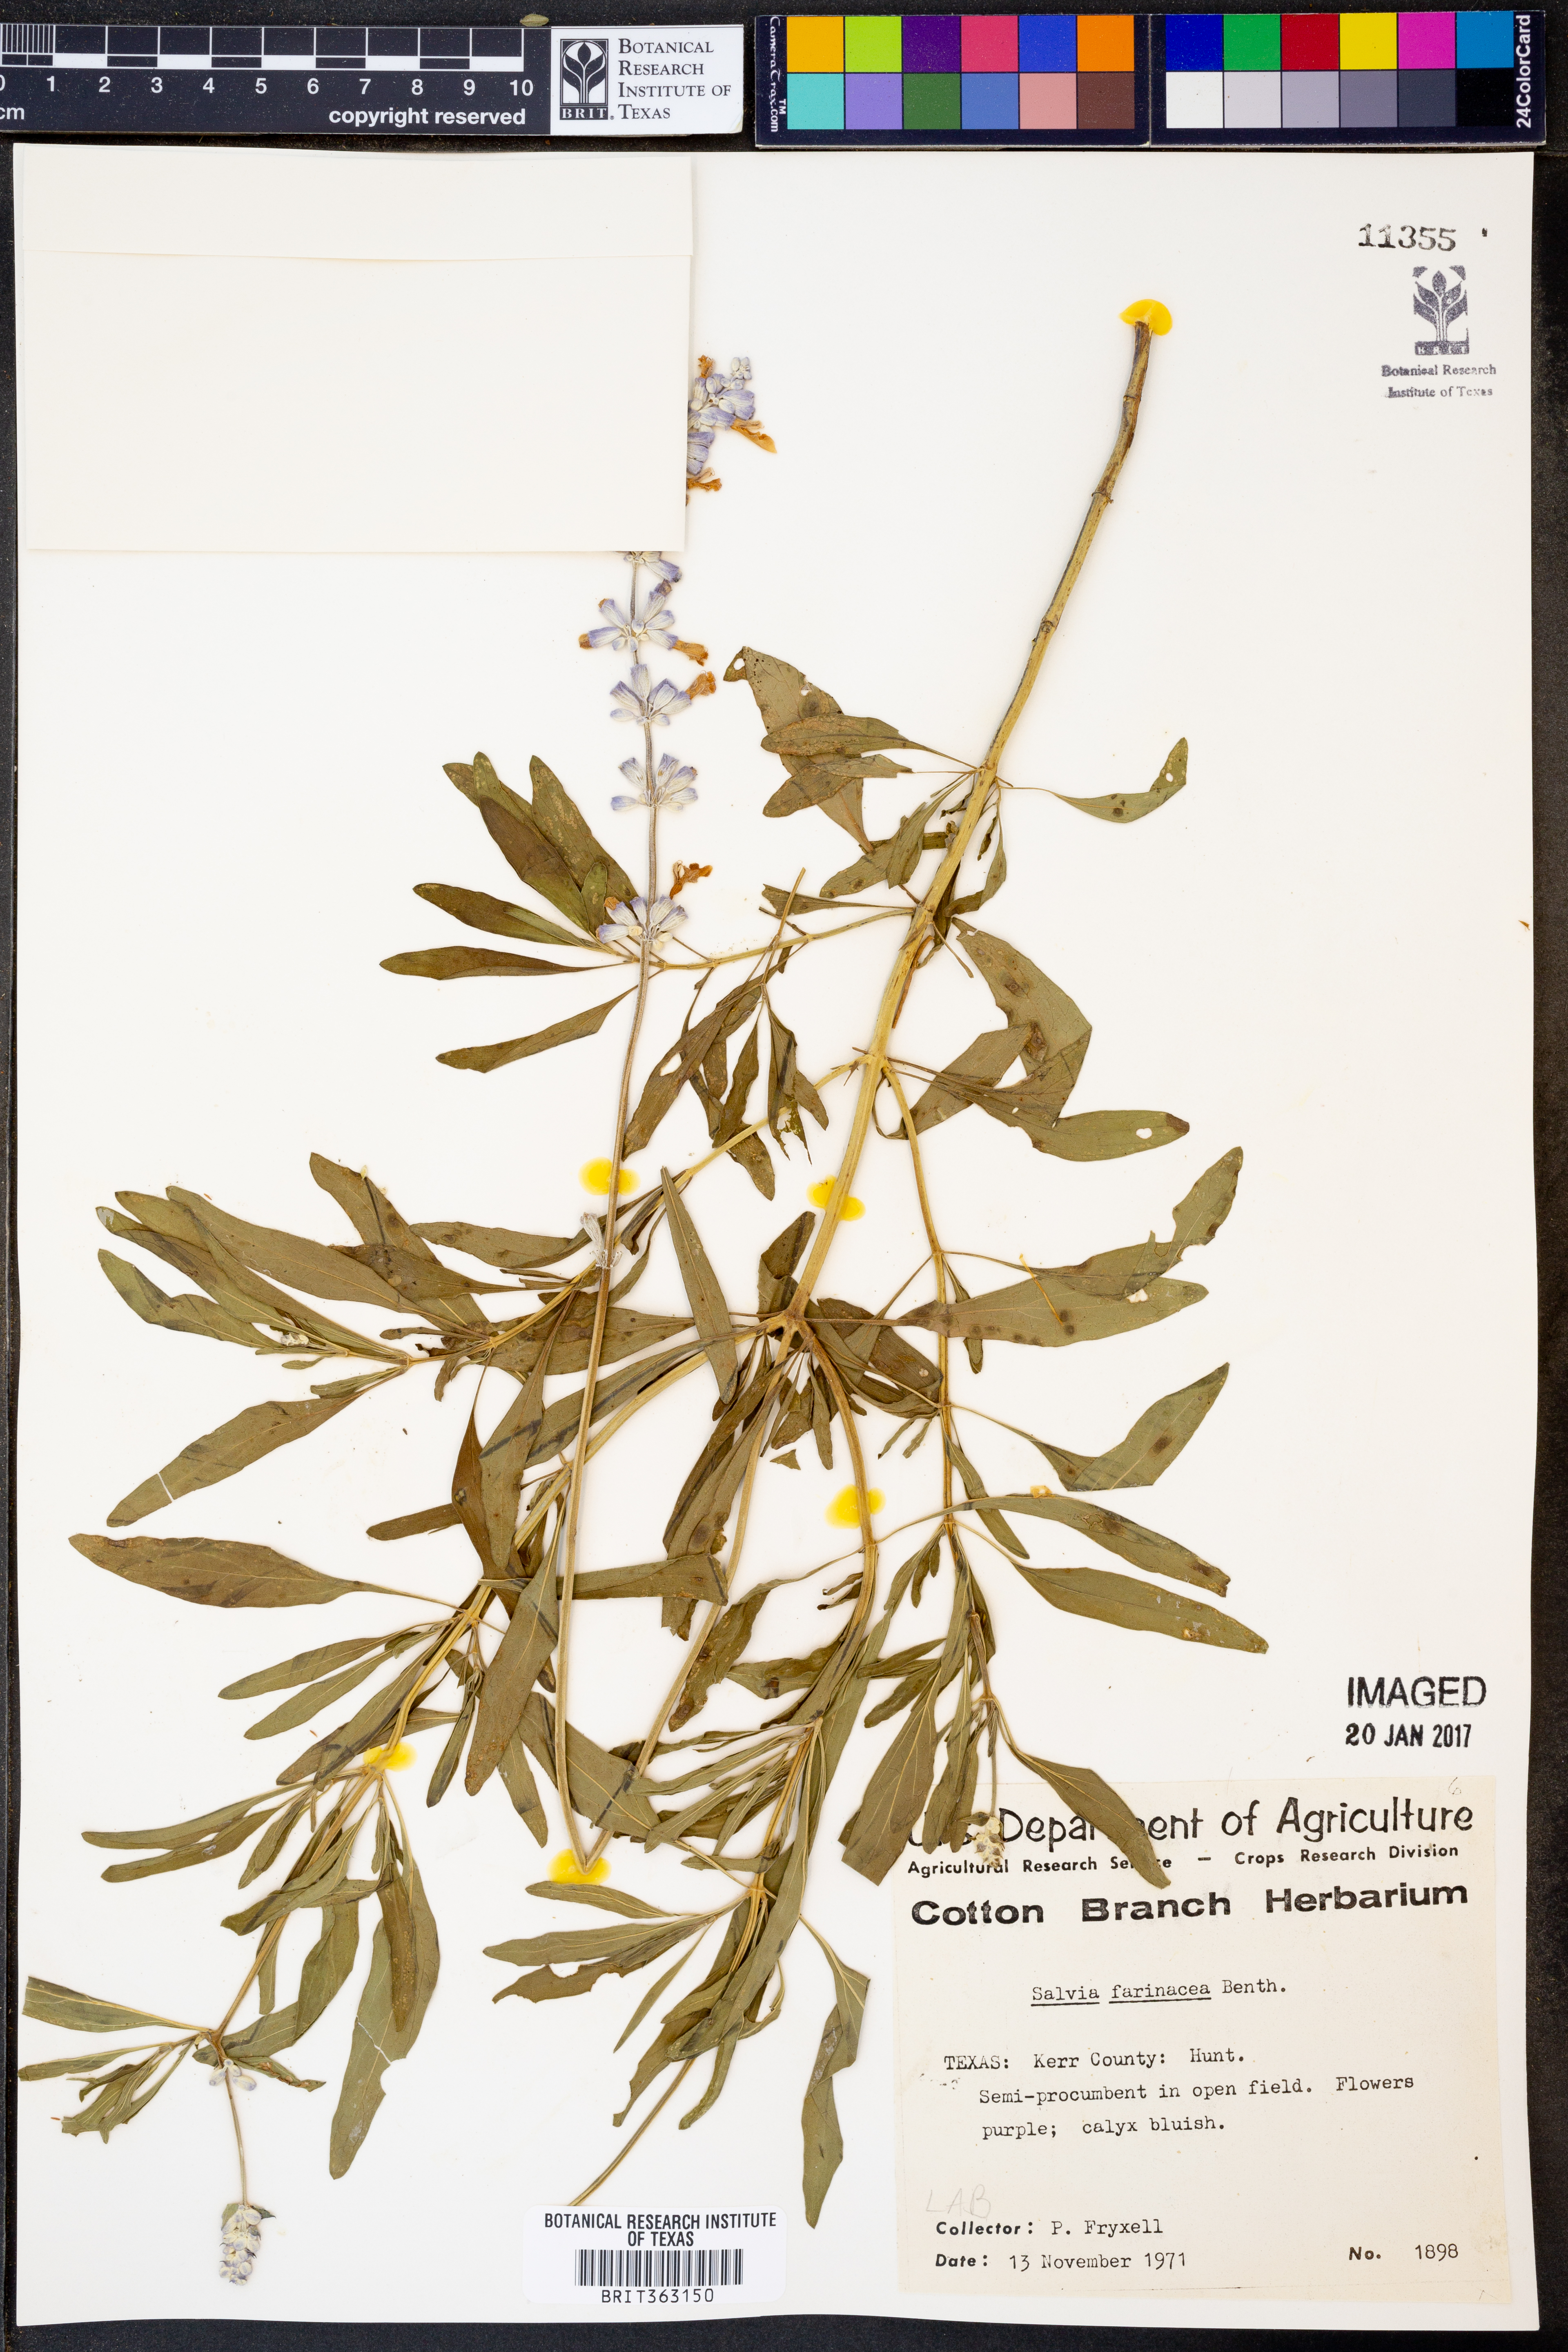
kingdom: Plantae
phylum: Tracheophyta
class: Magnoliopsida
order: Lamiales
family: Lamiaceae
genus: Salvia
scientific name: Salvia farinacea
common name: Mealy sage
